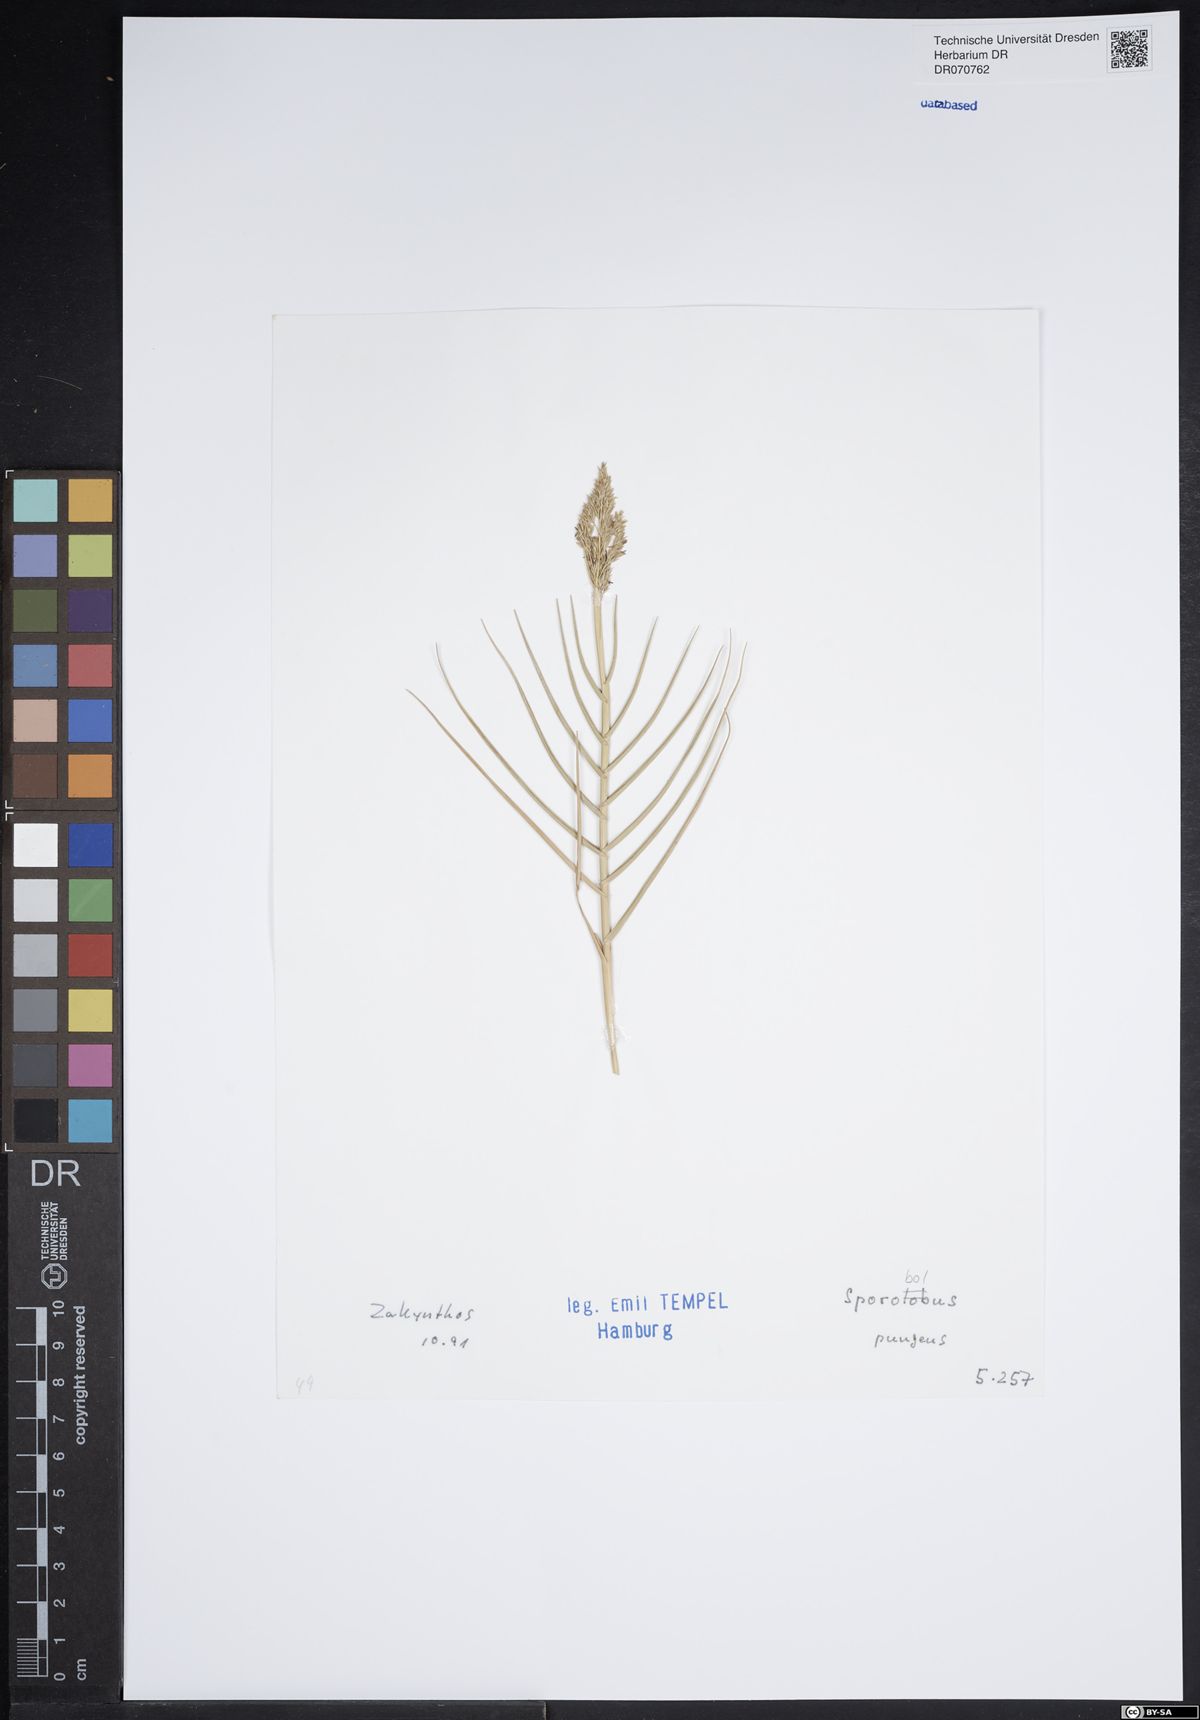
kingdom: Plantae
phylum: Tracheophyta
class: Liliopsida
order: Poales
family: Poaceae
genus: Sporobolus
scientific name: Sporobolus pungens
